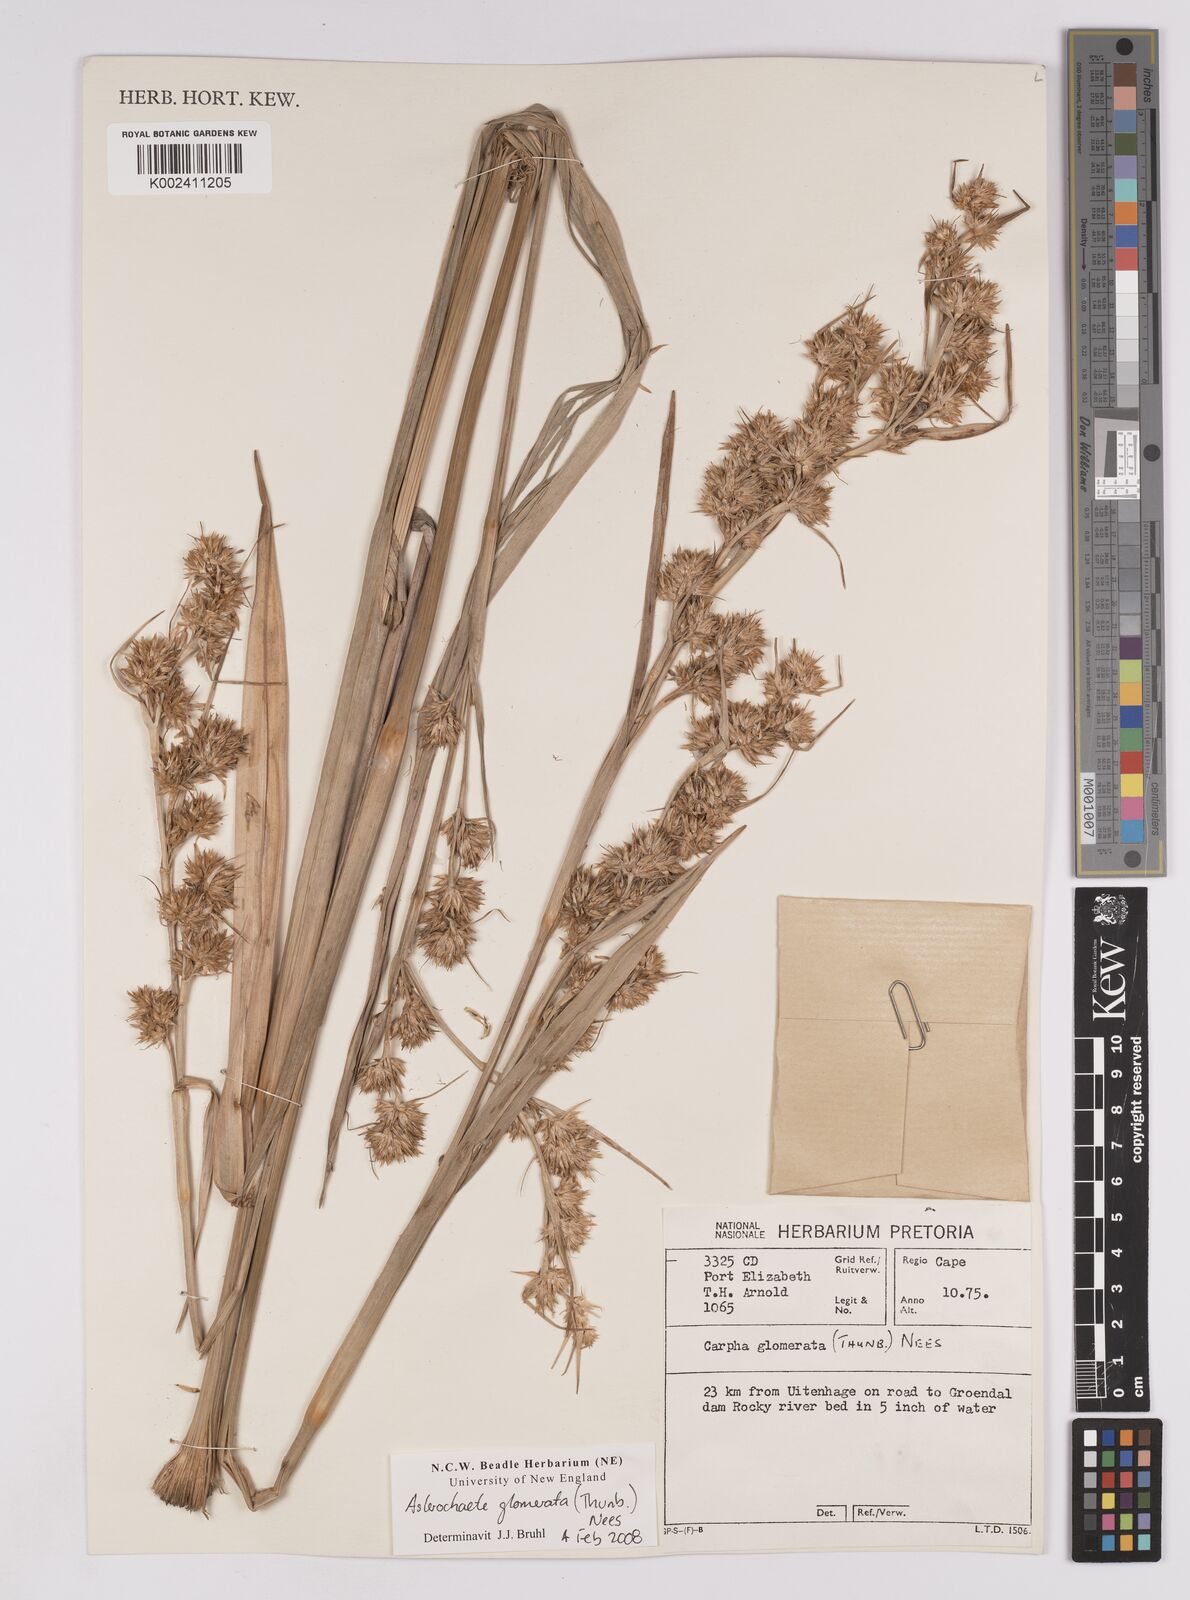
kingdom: Plantae
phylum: Tracheophyta
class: Liliopsida
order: Poales
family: Cyperaceae
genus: Carpha
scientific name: Carpha
